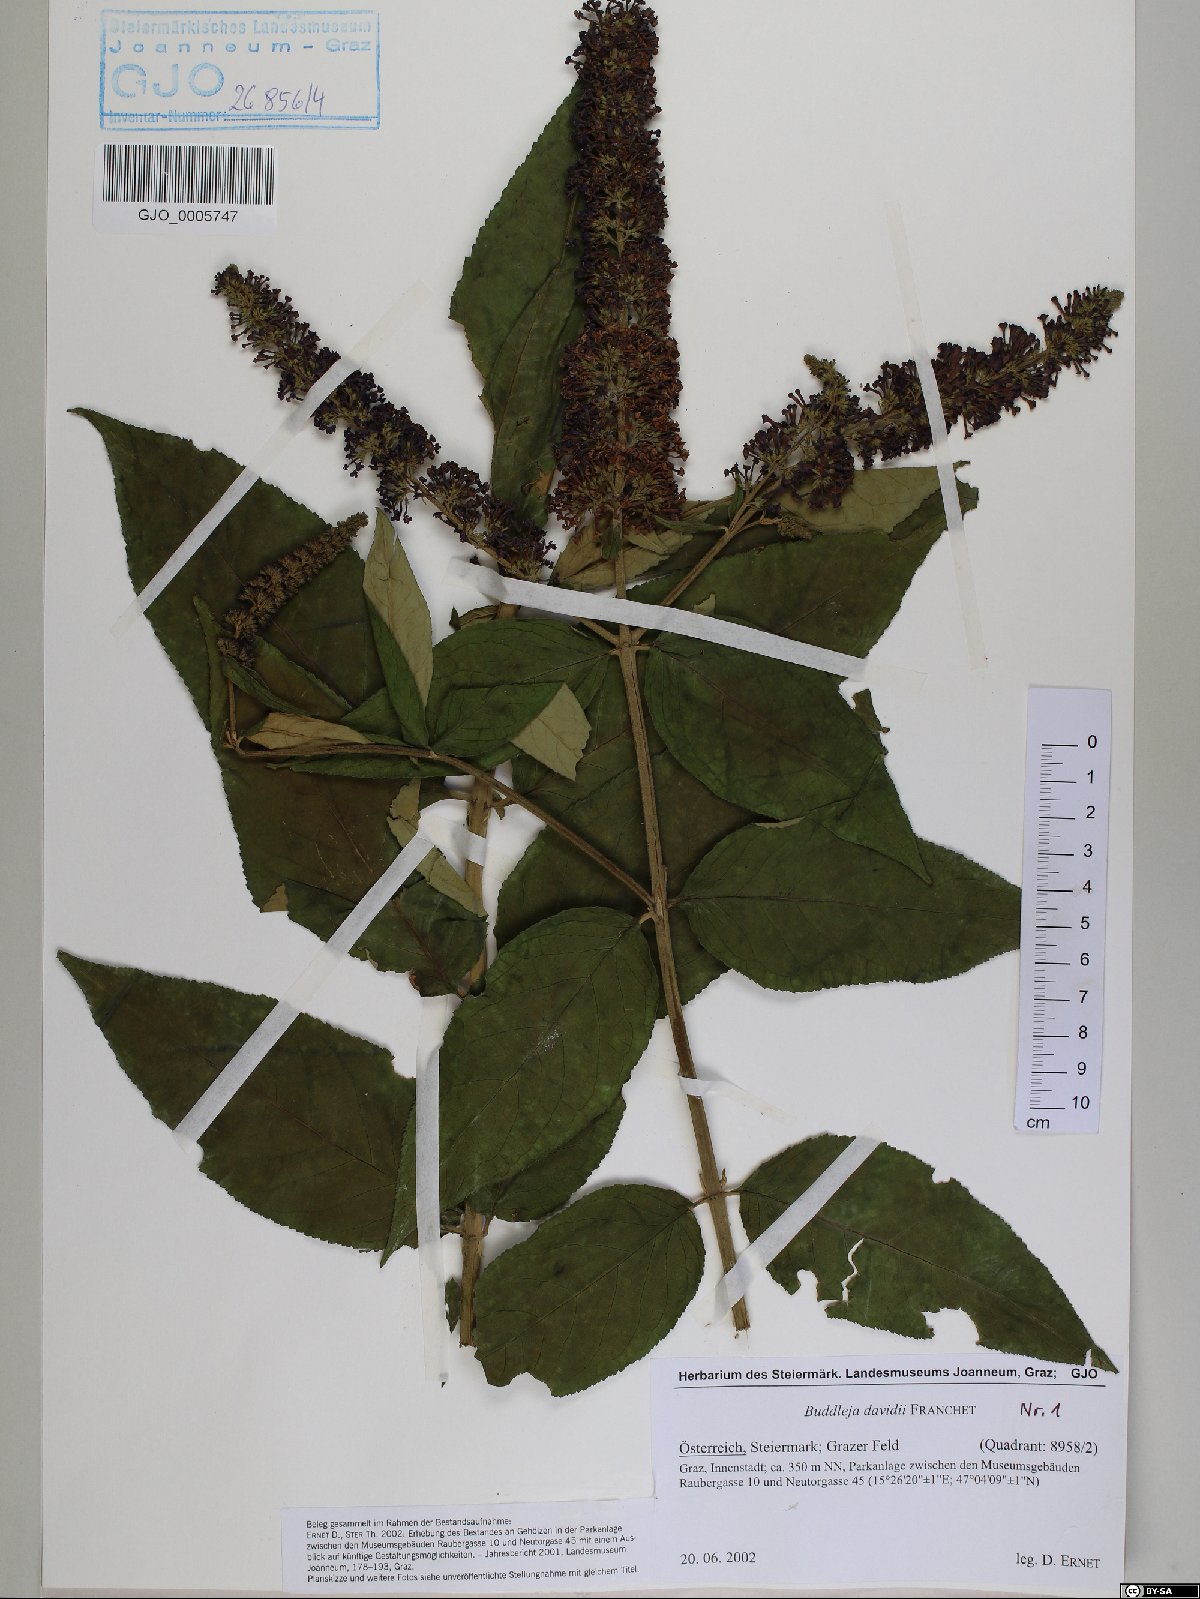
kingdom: Plantae
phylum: Tracheophyta
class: Magnoliopsida
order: Lamiales
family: Scrophulariaceae
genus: Buddleja
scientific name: Buddleja davidii
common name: Butterfly-bush
